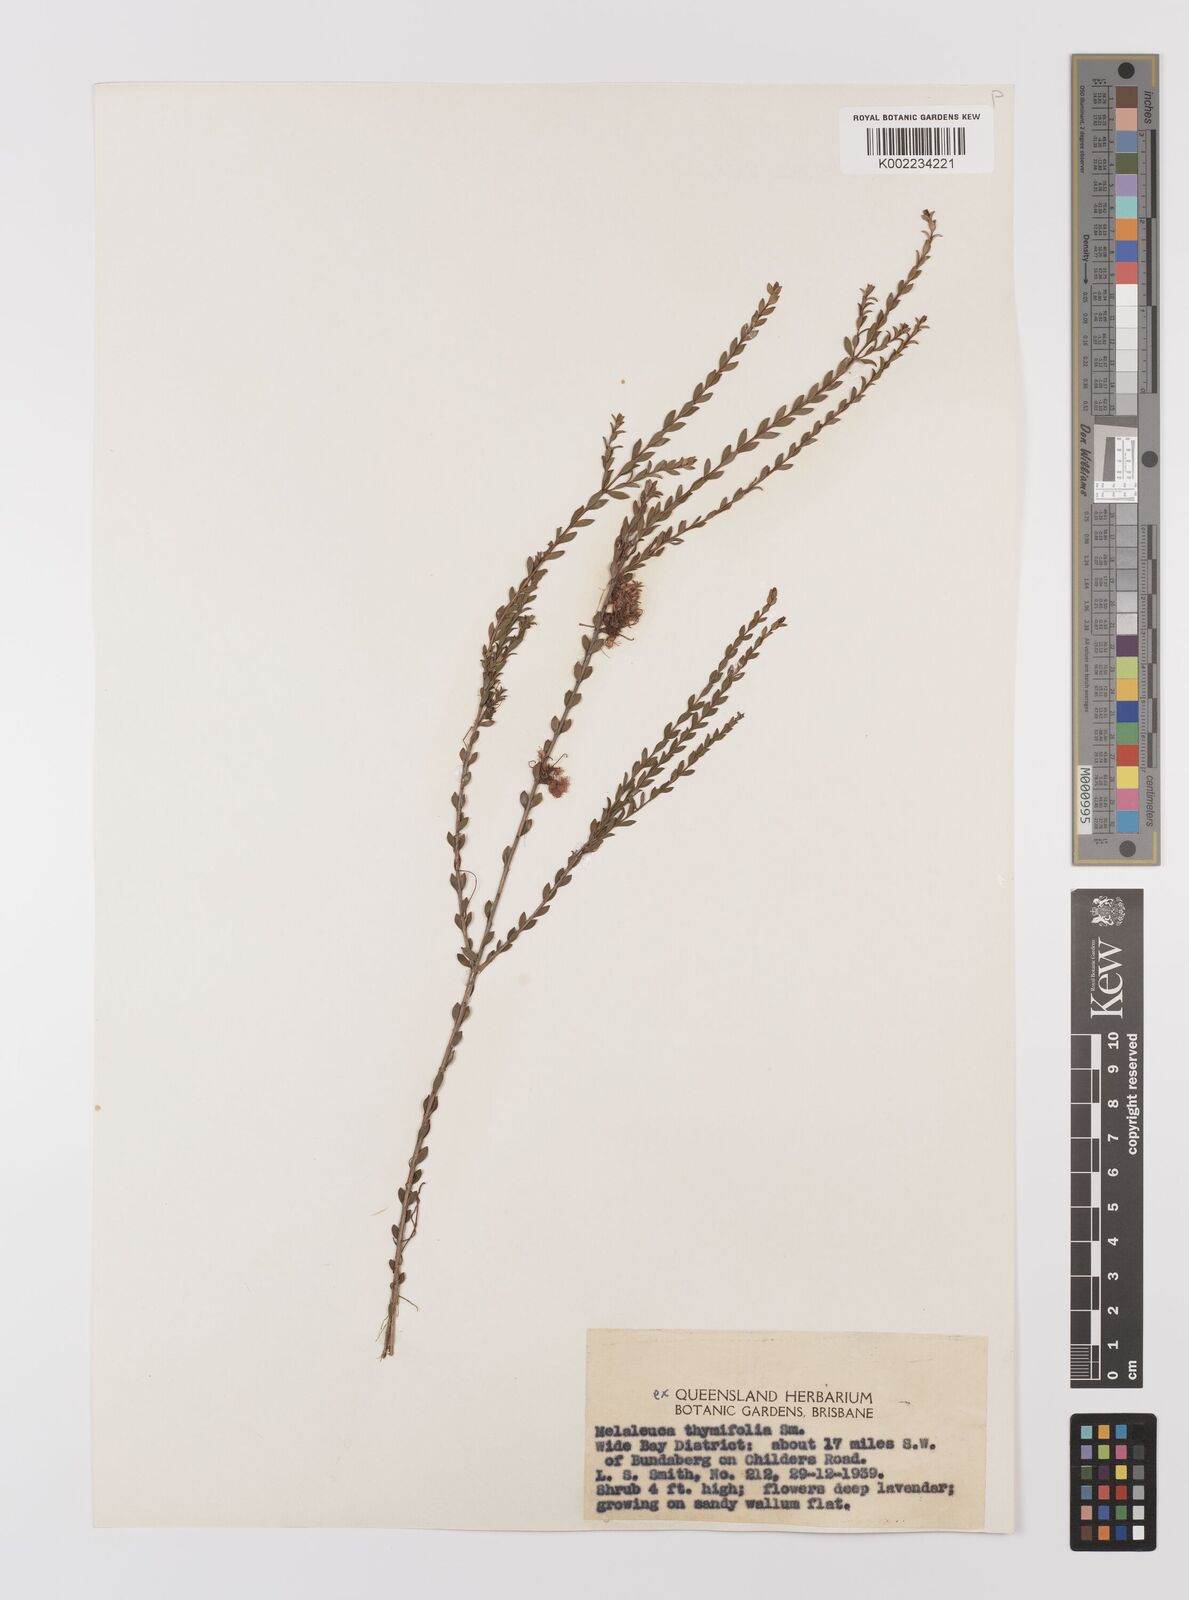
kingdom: Plantae
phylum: Tracheophyta
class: Magnoliopsida
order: Myrtales
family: Myrtaceae
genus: Melaleuca
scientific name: Melaleuca thymifolia
